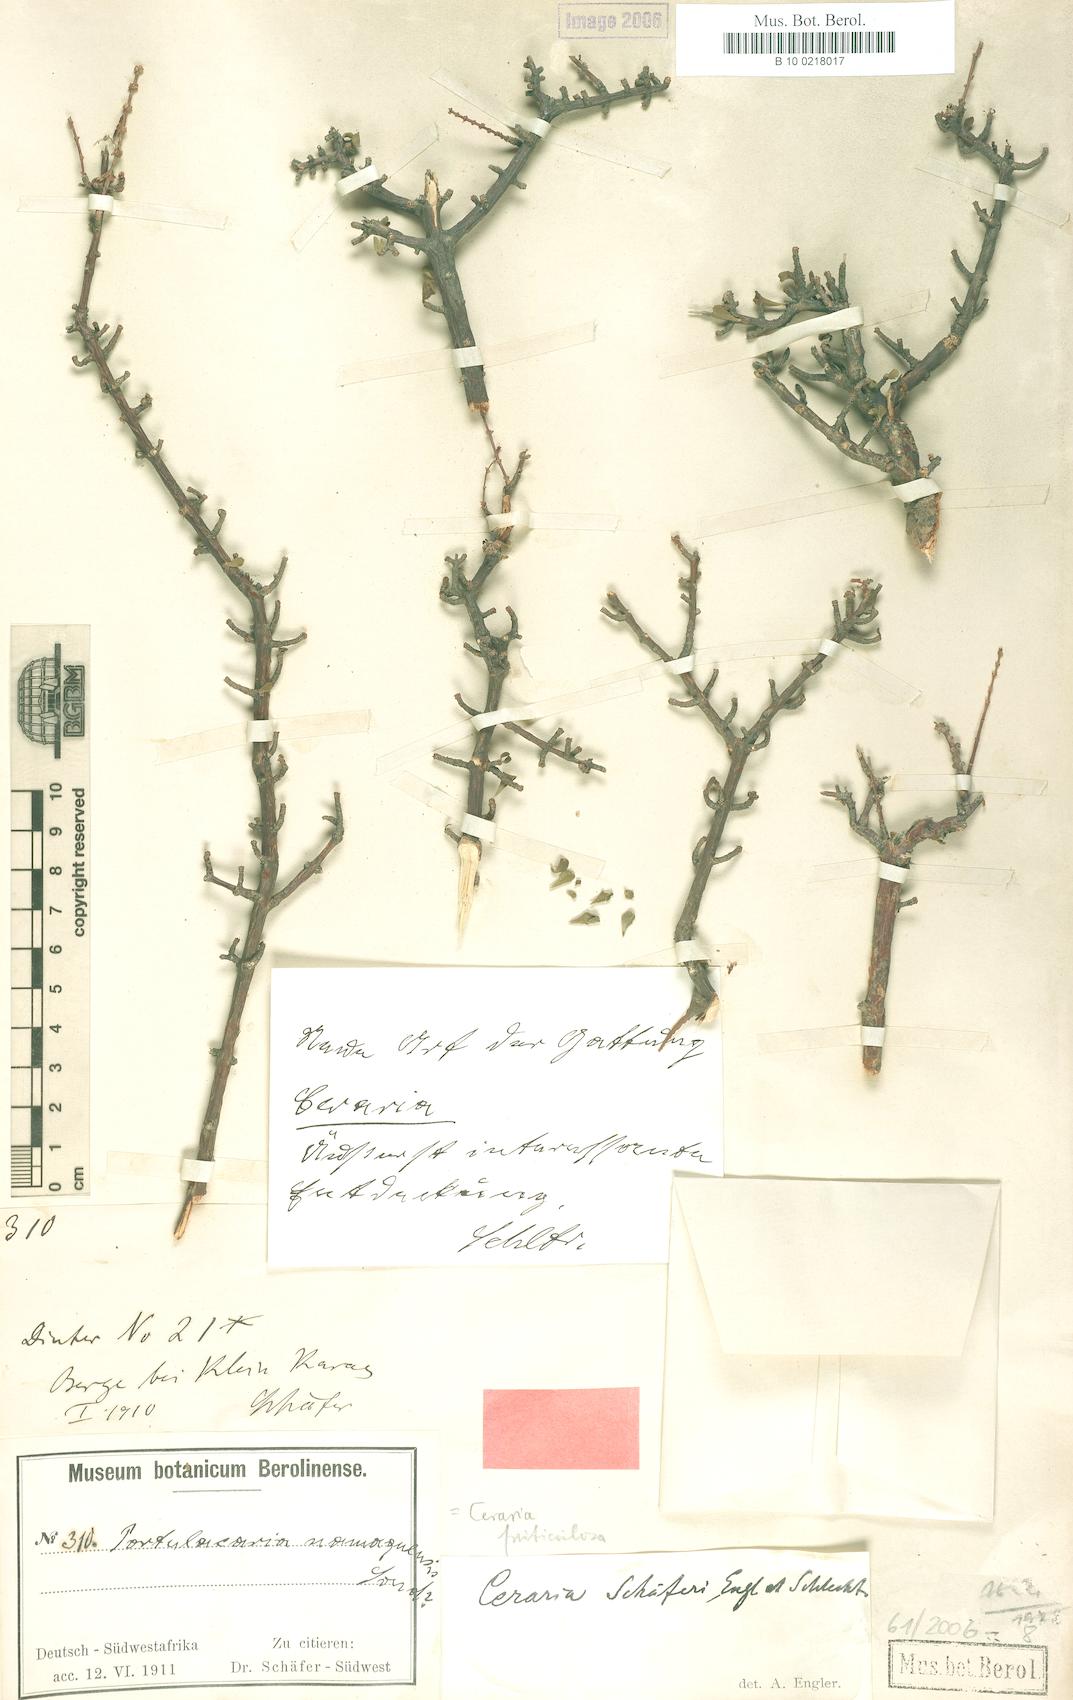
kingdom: Plantae
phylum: Tracheophyta
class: Magnoliopsida
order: Caryophyllales
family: Didiereaceae
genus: Portulacaria
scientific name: Portulacaria fruticulosa
